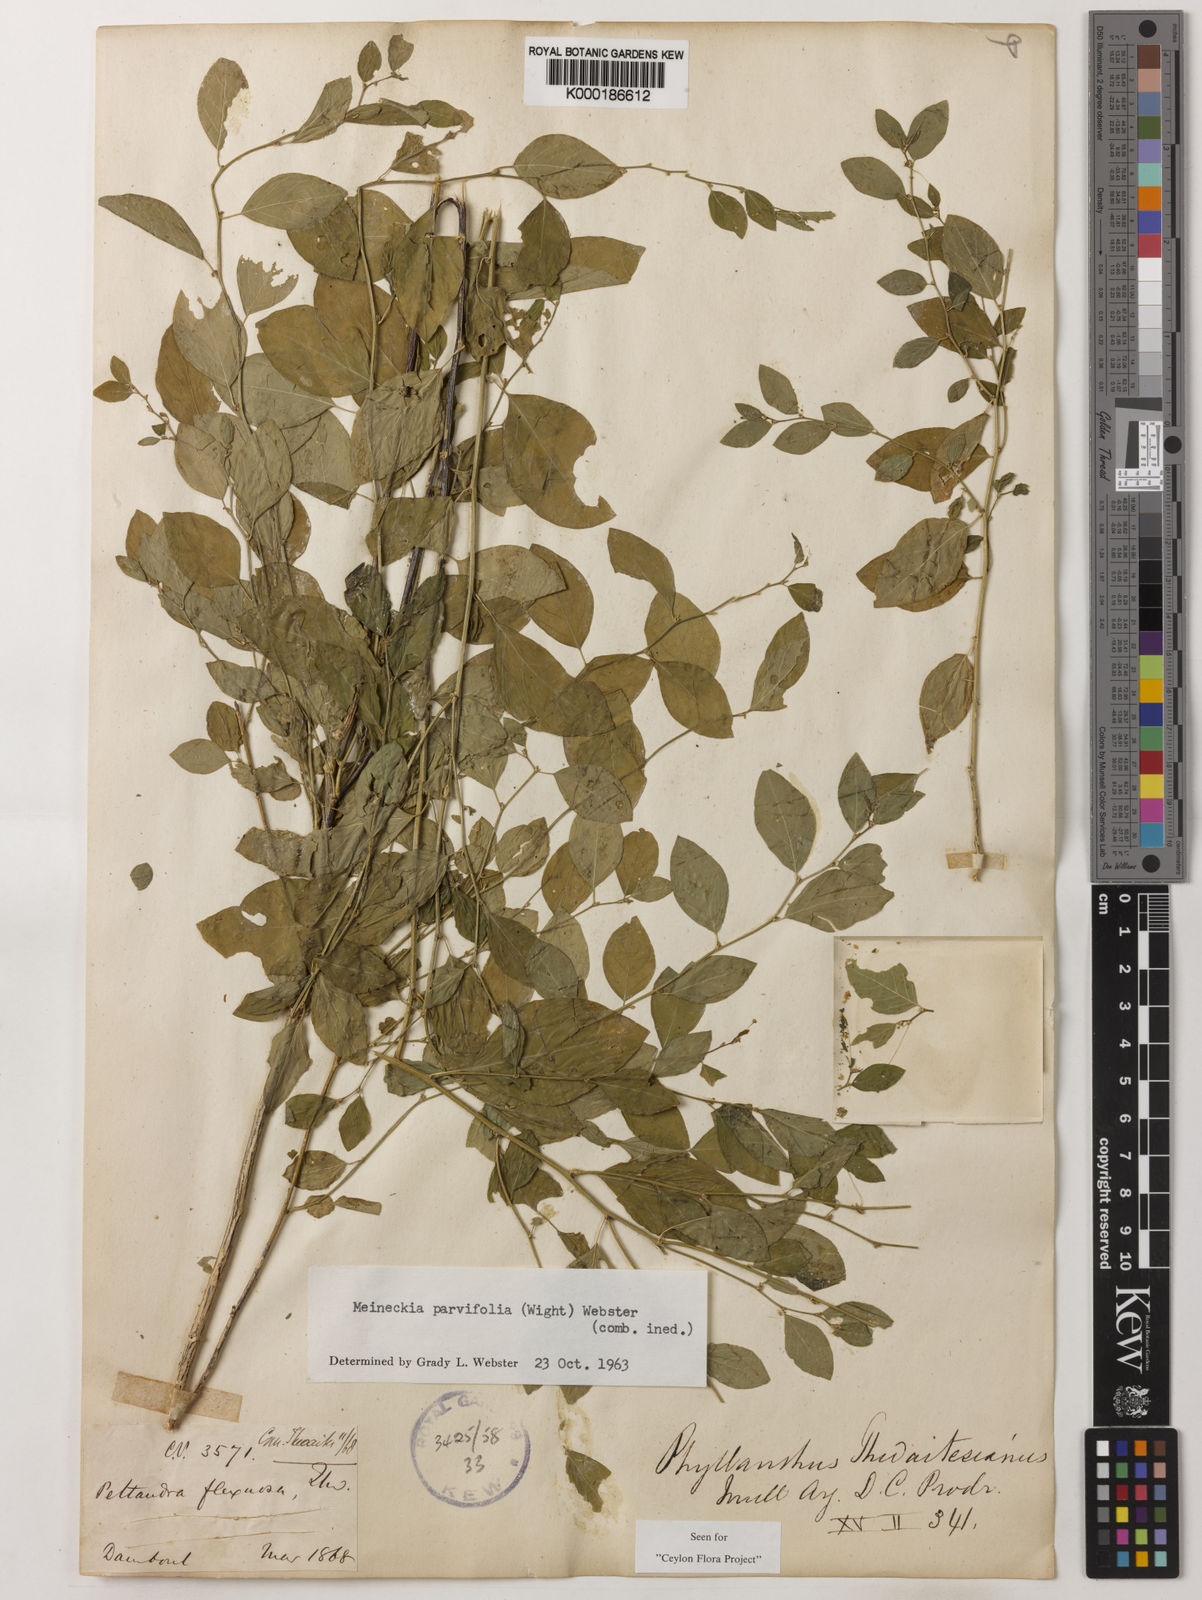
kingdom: Plantae
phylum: Tracheophyta
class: Magnoliopsida
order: Malpighiales
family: Phyllanthaceae
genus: Meineckia
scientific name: Meineckia parvifolia
